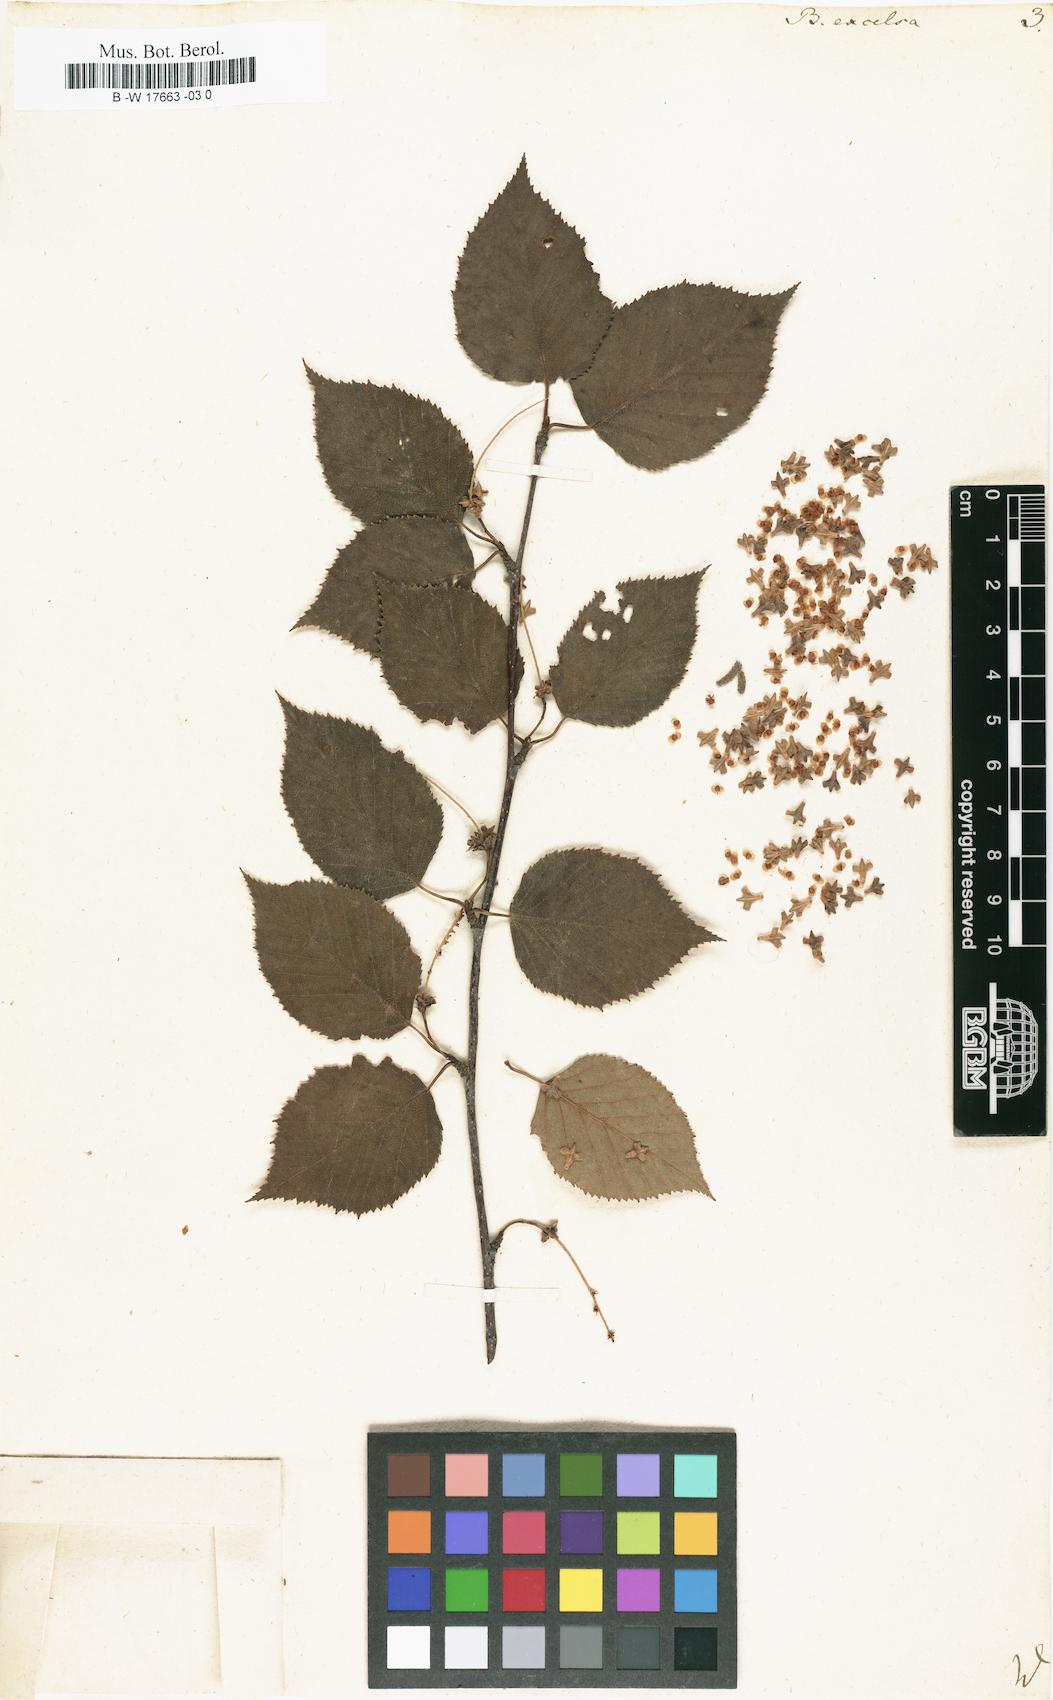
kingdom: Plantae
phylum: Tracheophyta
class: Magnoliopsida
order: Fagales
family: Betulaceae
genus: Betula
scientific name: Betula papyrifera
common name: Paper birch
